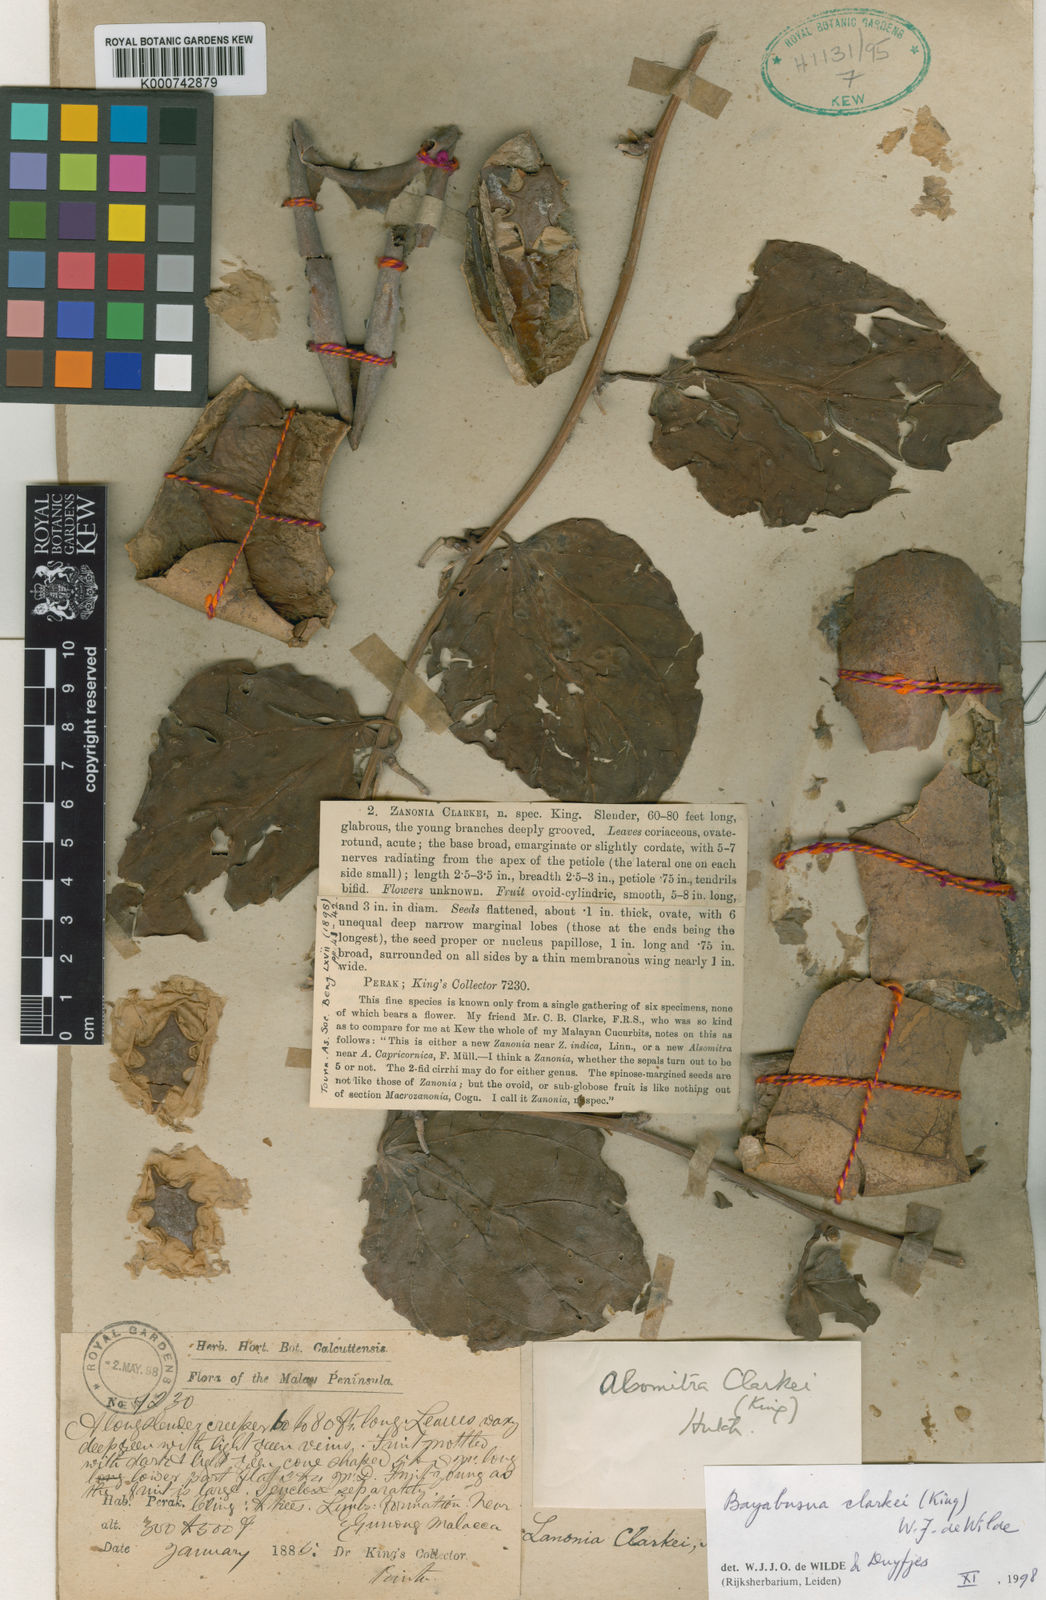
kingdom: Plantae
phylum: Tracheophyta
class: Magnoliopsida
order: Cucurbitales
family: Cucurbitaceae
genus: Bayabusua
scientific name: Bayabusua clarkei
